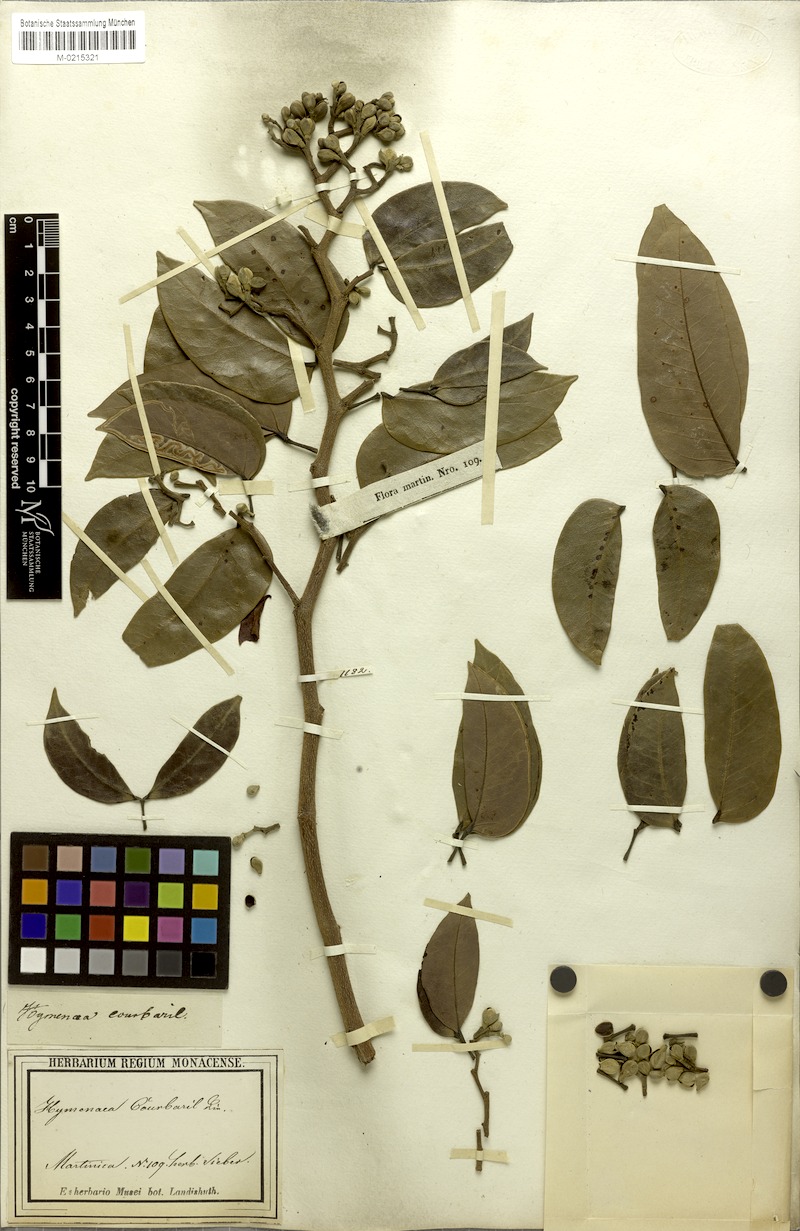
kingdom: Plantae
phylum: Tracheophyta
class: Magnoliopsida
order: Fabales
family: Fabaceae
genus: Hymenaea
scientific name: Hymenaea courbaril
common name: Brazilian copal
